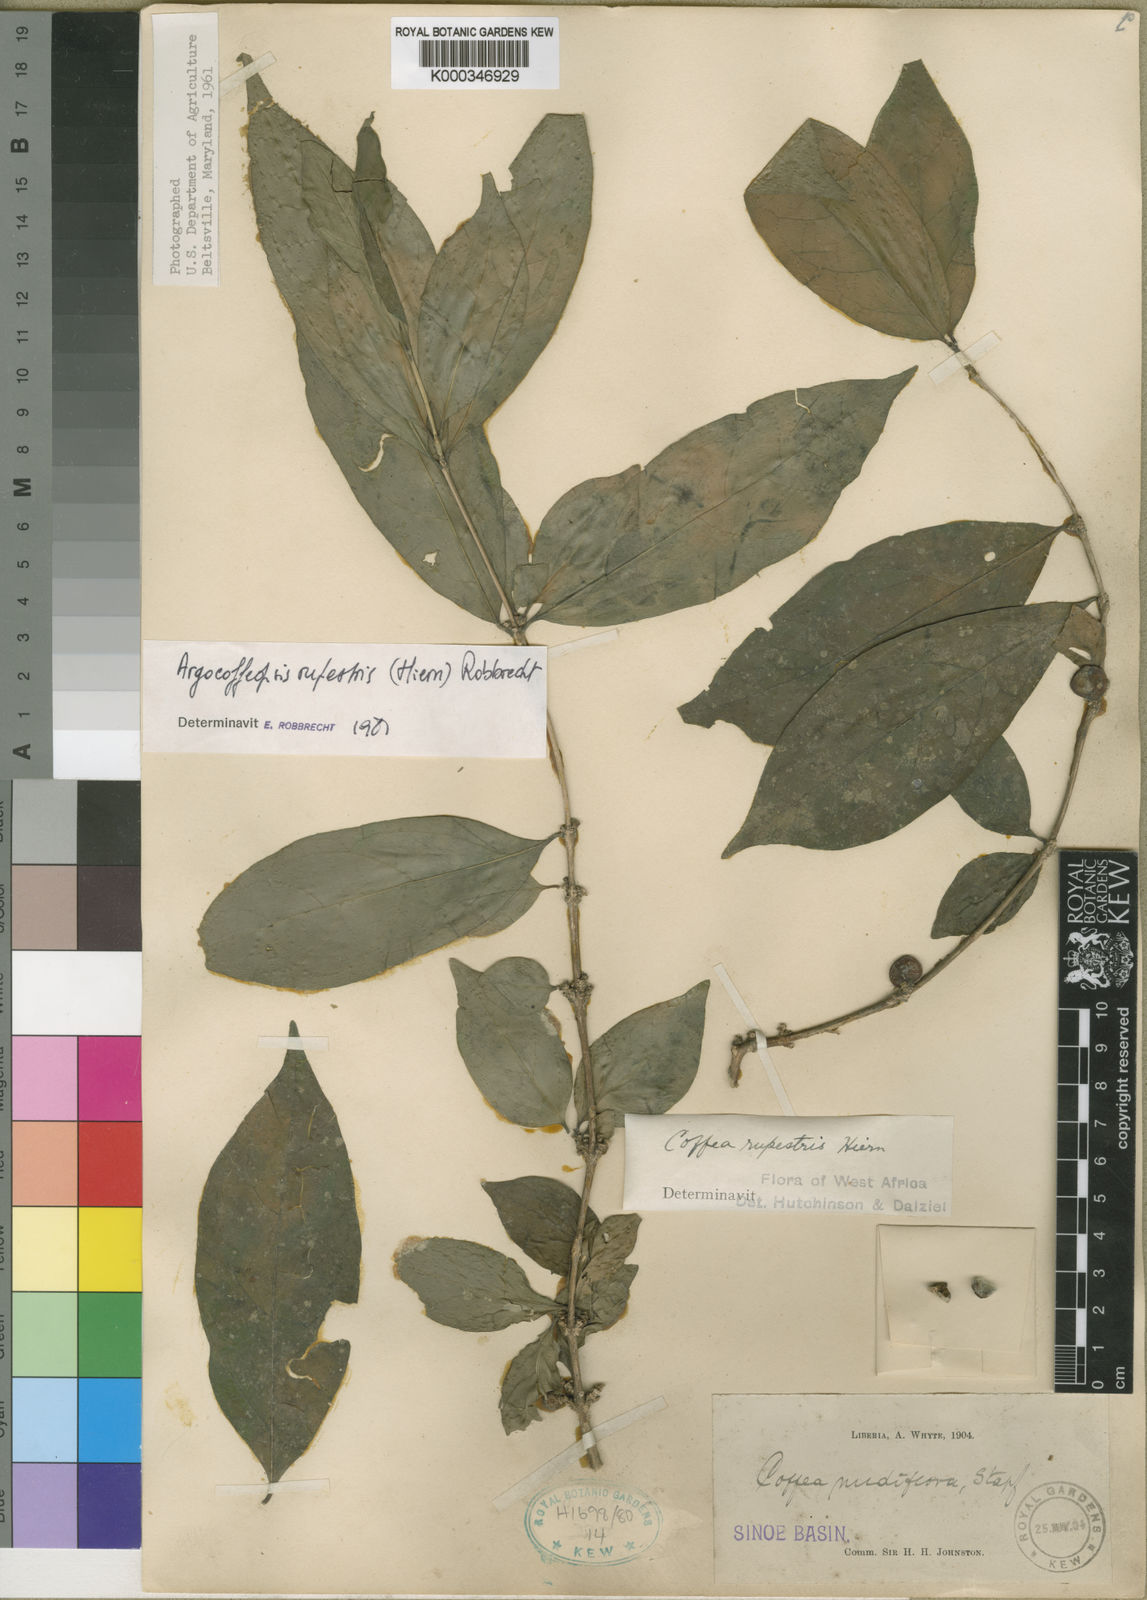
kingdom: Plantae
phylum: Tracheophyta
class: Magnoliopsida
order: Gentianales
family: Rubiaceae
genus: Argocoffeopsis
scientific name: Argocoffeopsis rupestris
